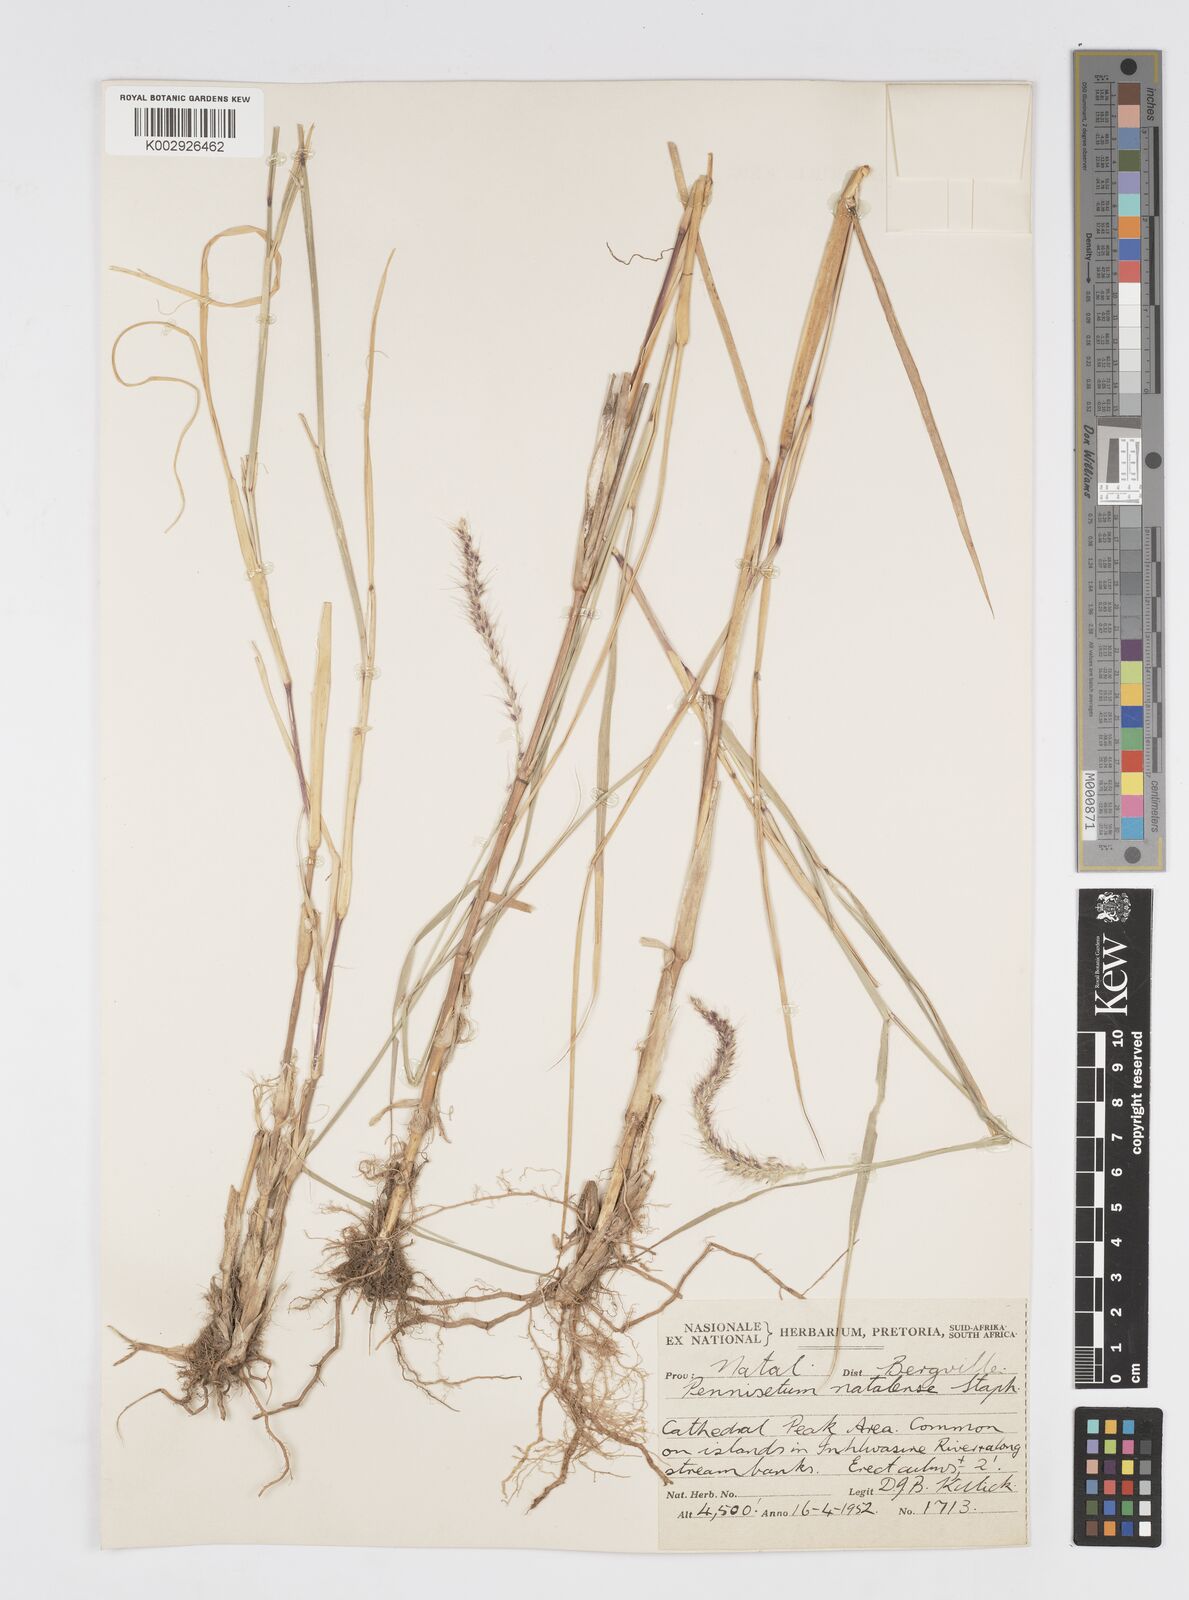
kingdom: Plantae
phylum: Tracheophyta
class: Liliopsida
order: Poales
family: Poaceae
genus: Cenchrus
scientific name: Cenchrus caudatus
